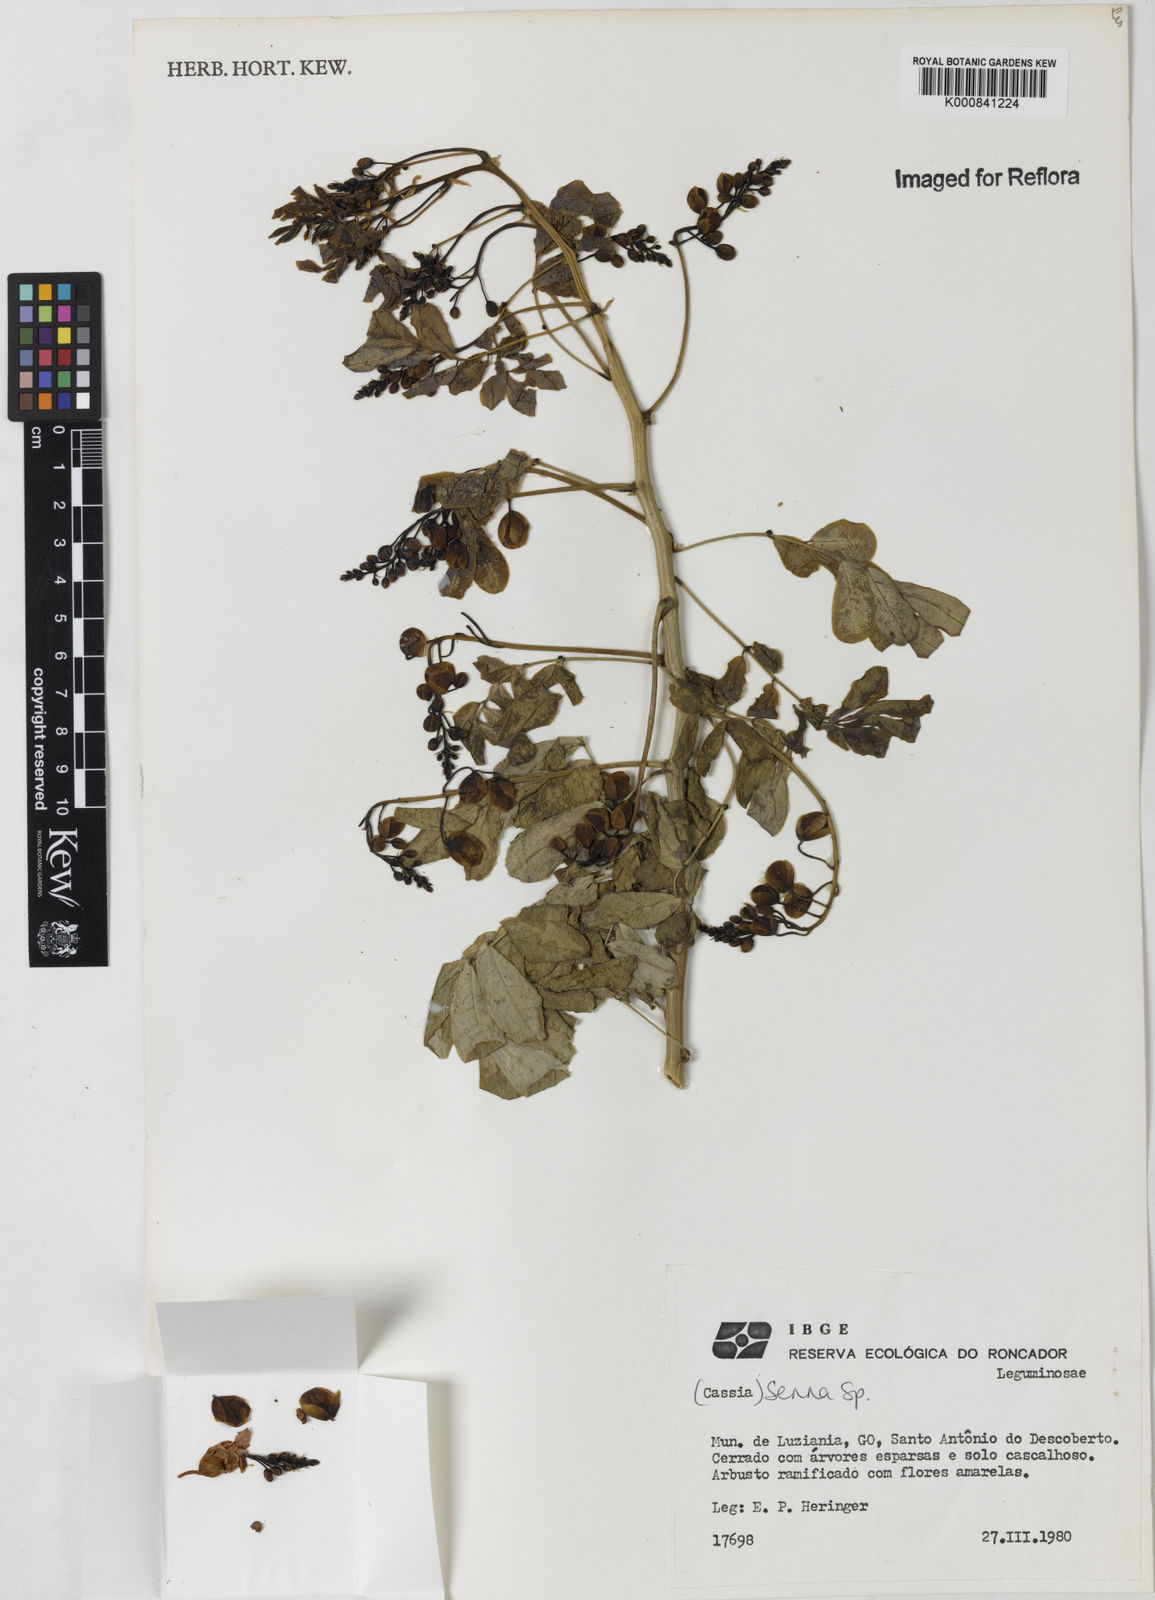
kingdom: Plantae
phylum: Tracheophyta
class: Magnoliopsida
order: Fabales
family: Fabaceae
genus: Senna
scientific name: Senna
